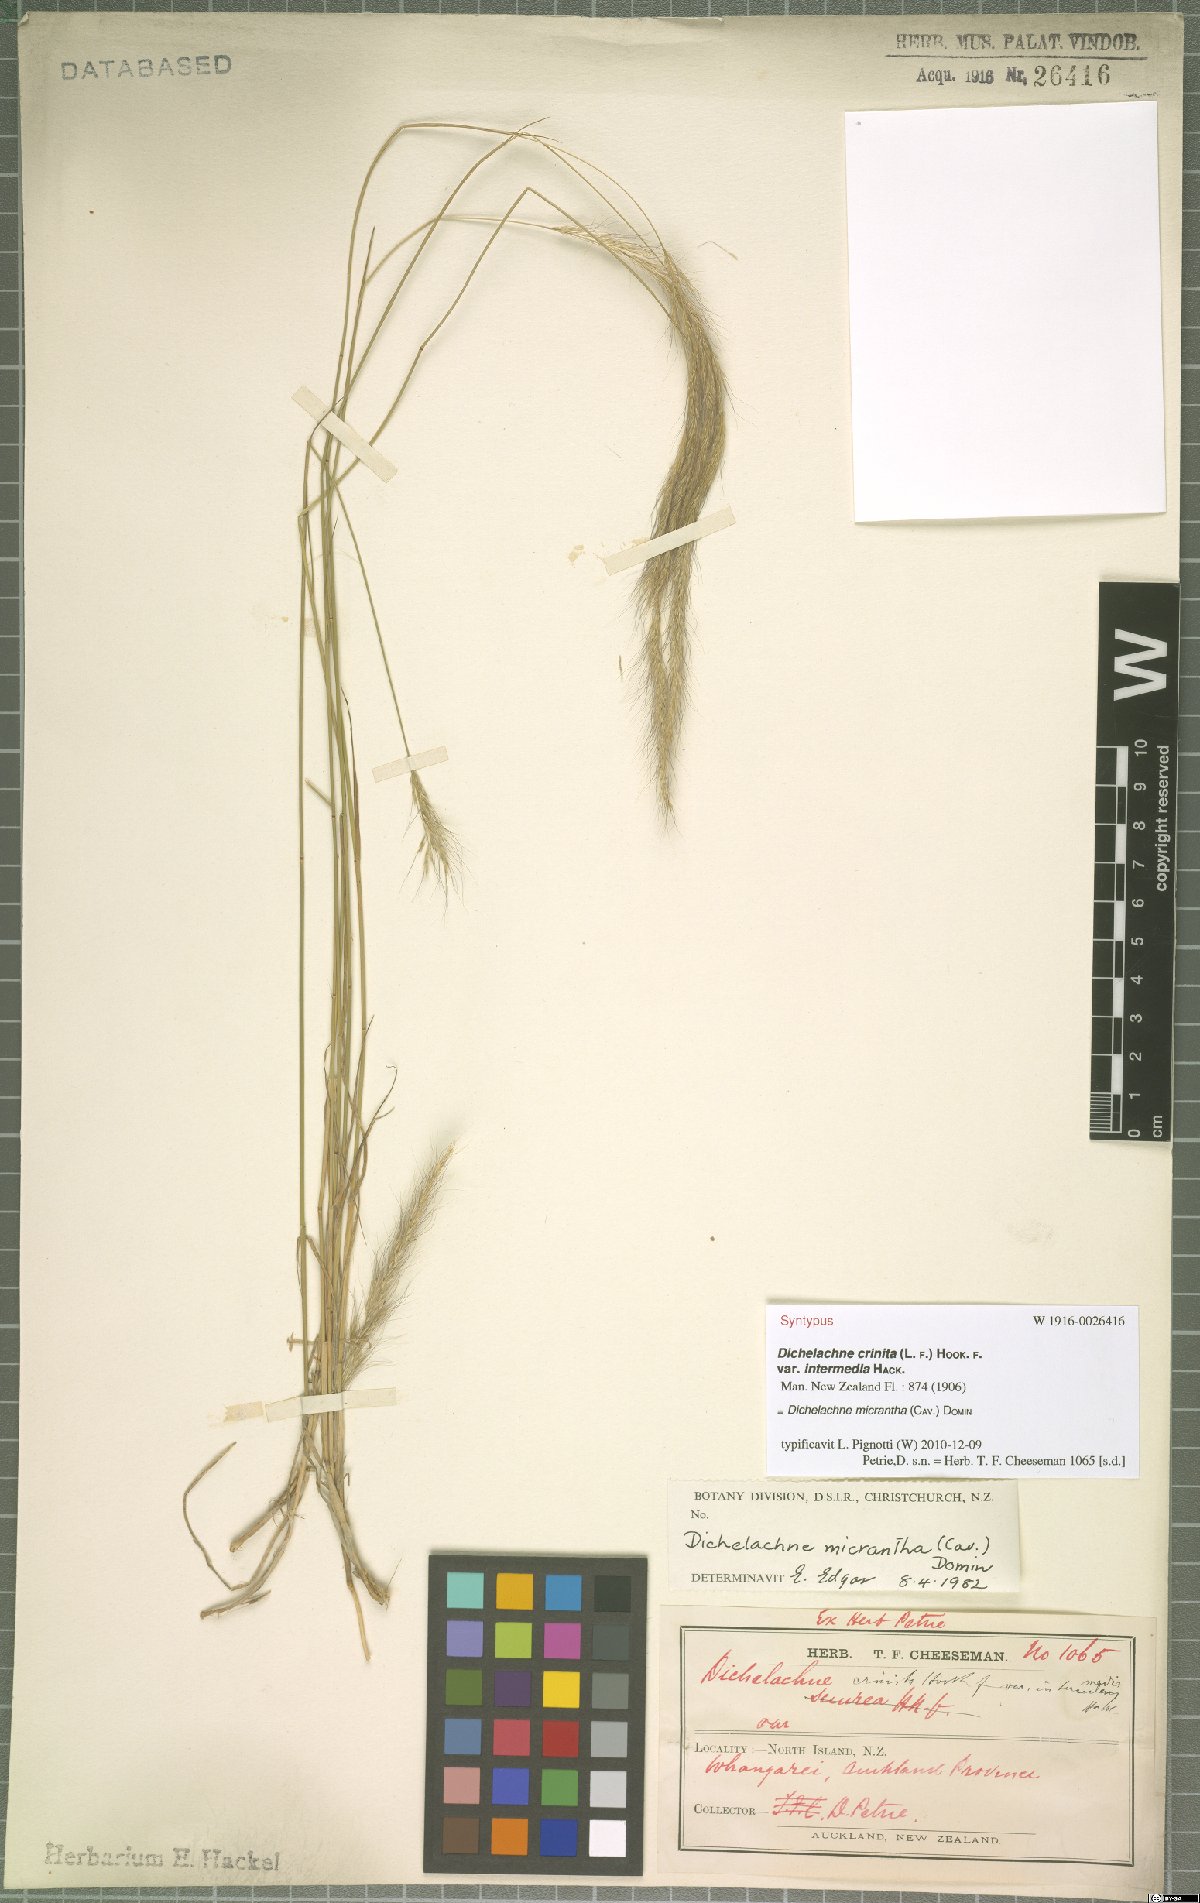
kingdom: Plantae
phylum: Tracheophyta
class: Liliopsida
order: Poales
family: Poaceae
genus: Dichelachne
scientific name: Dichelachne micrantha
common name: Plumegrass
